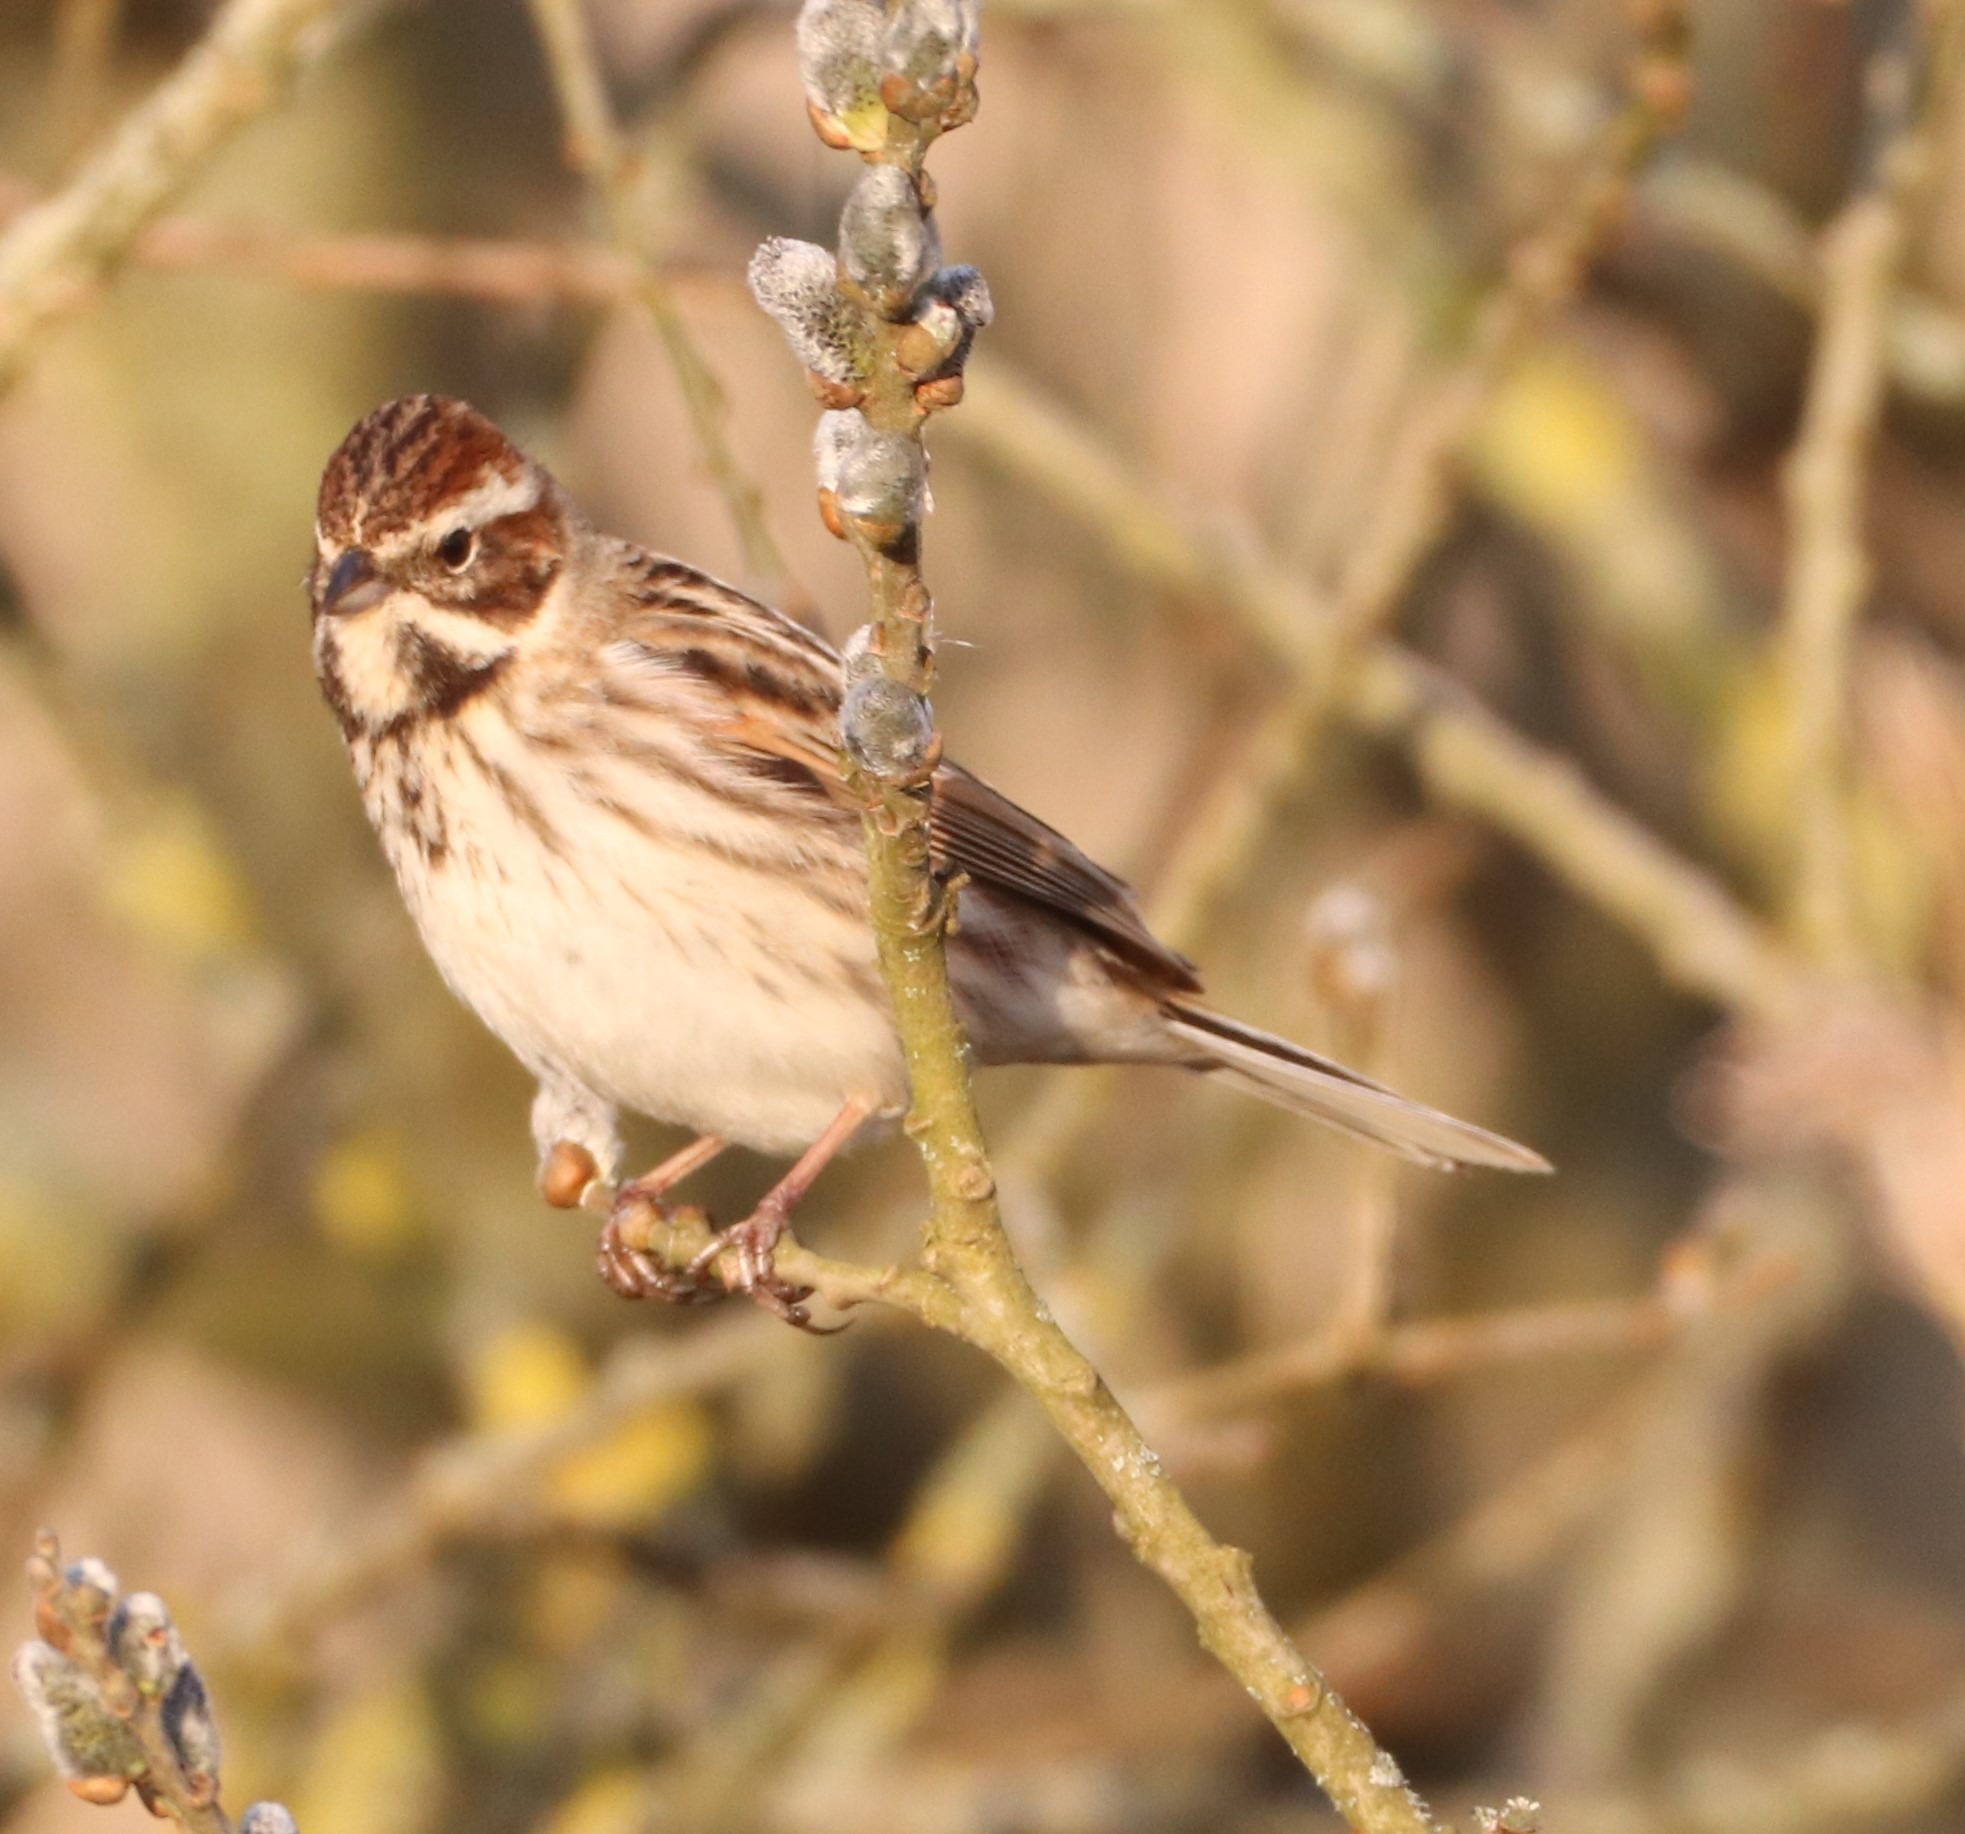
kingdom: Animalia
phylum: Chordata
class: Aves
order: Passeriformes
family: Emberizidae
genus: Emberiza
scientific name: Emberiza schoeniclus
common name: Rørspurv
